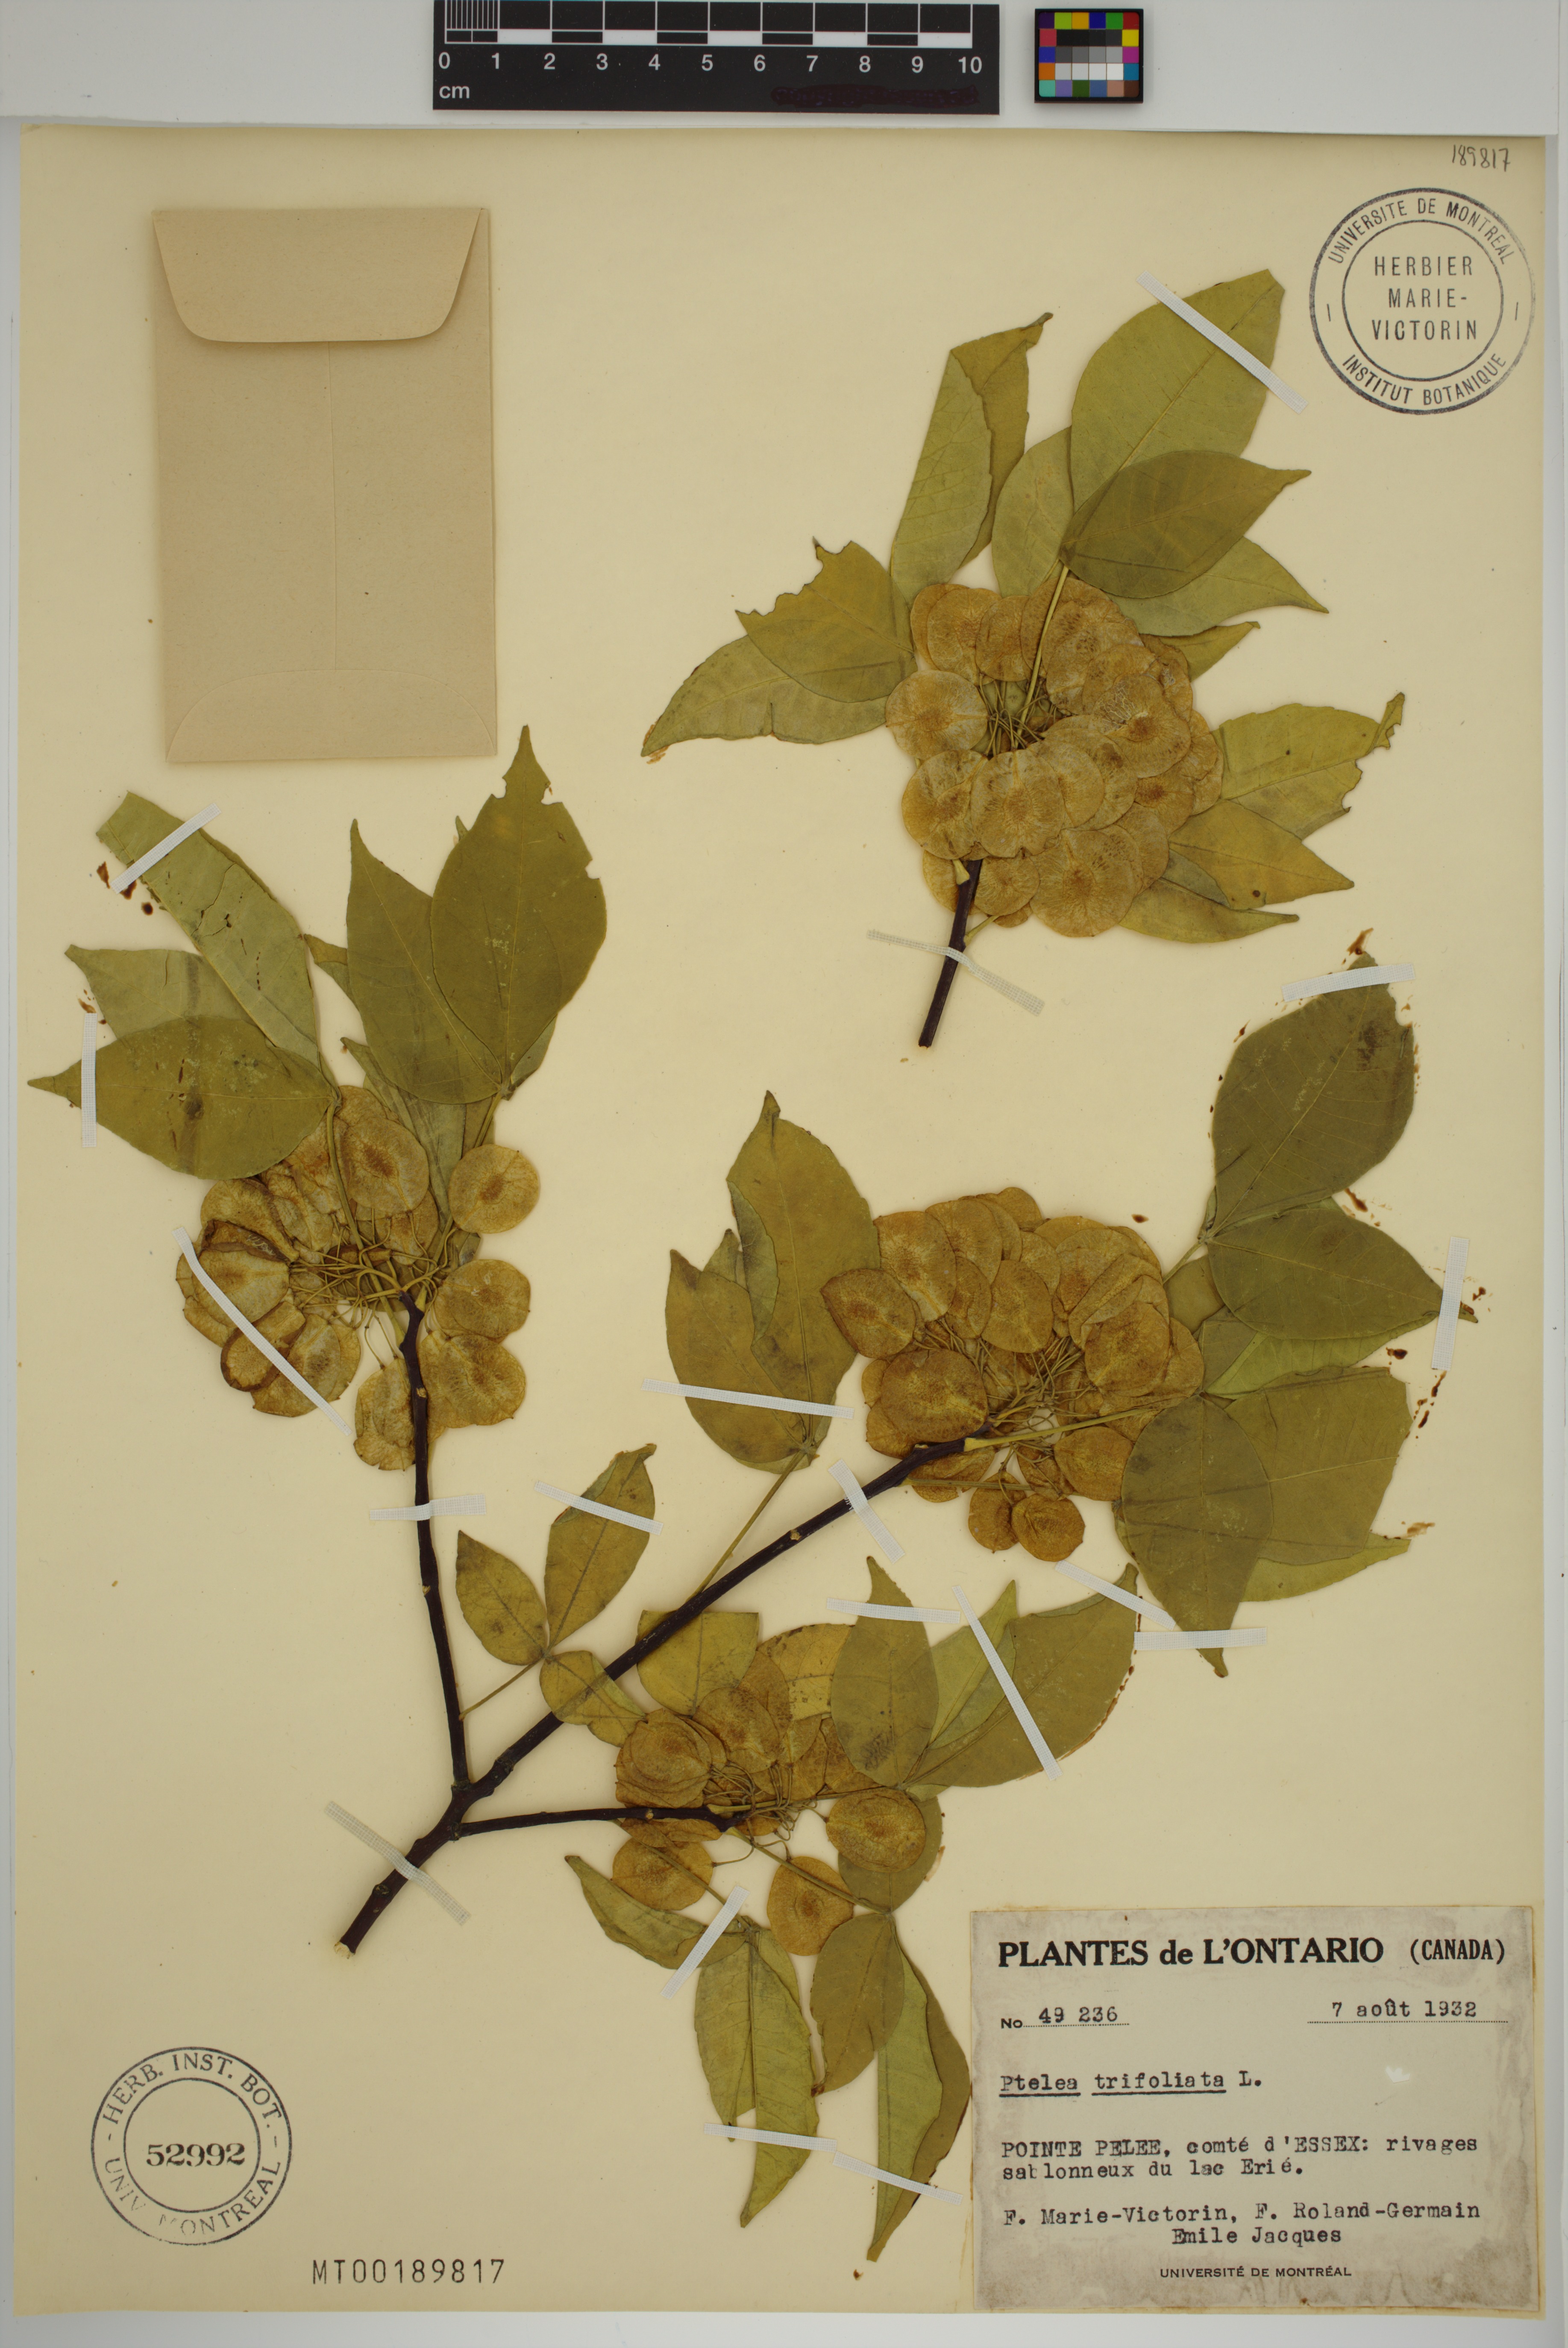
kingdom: Plantae
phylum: Tracheophyta
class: Magnoliopsida
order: Sapindales
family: Rutaceae
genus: Ptelea
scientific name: Ptelea trifoliata
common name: Common hop-tree
